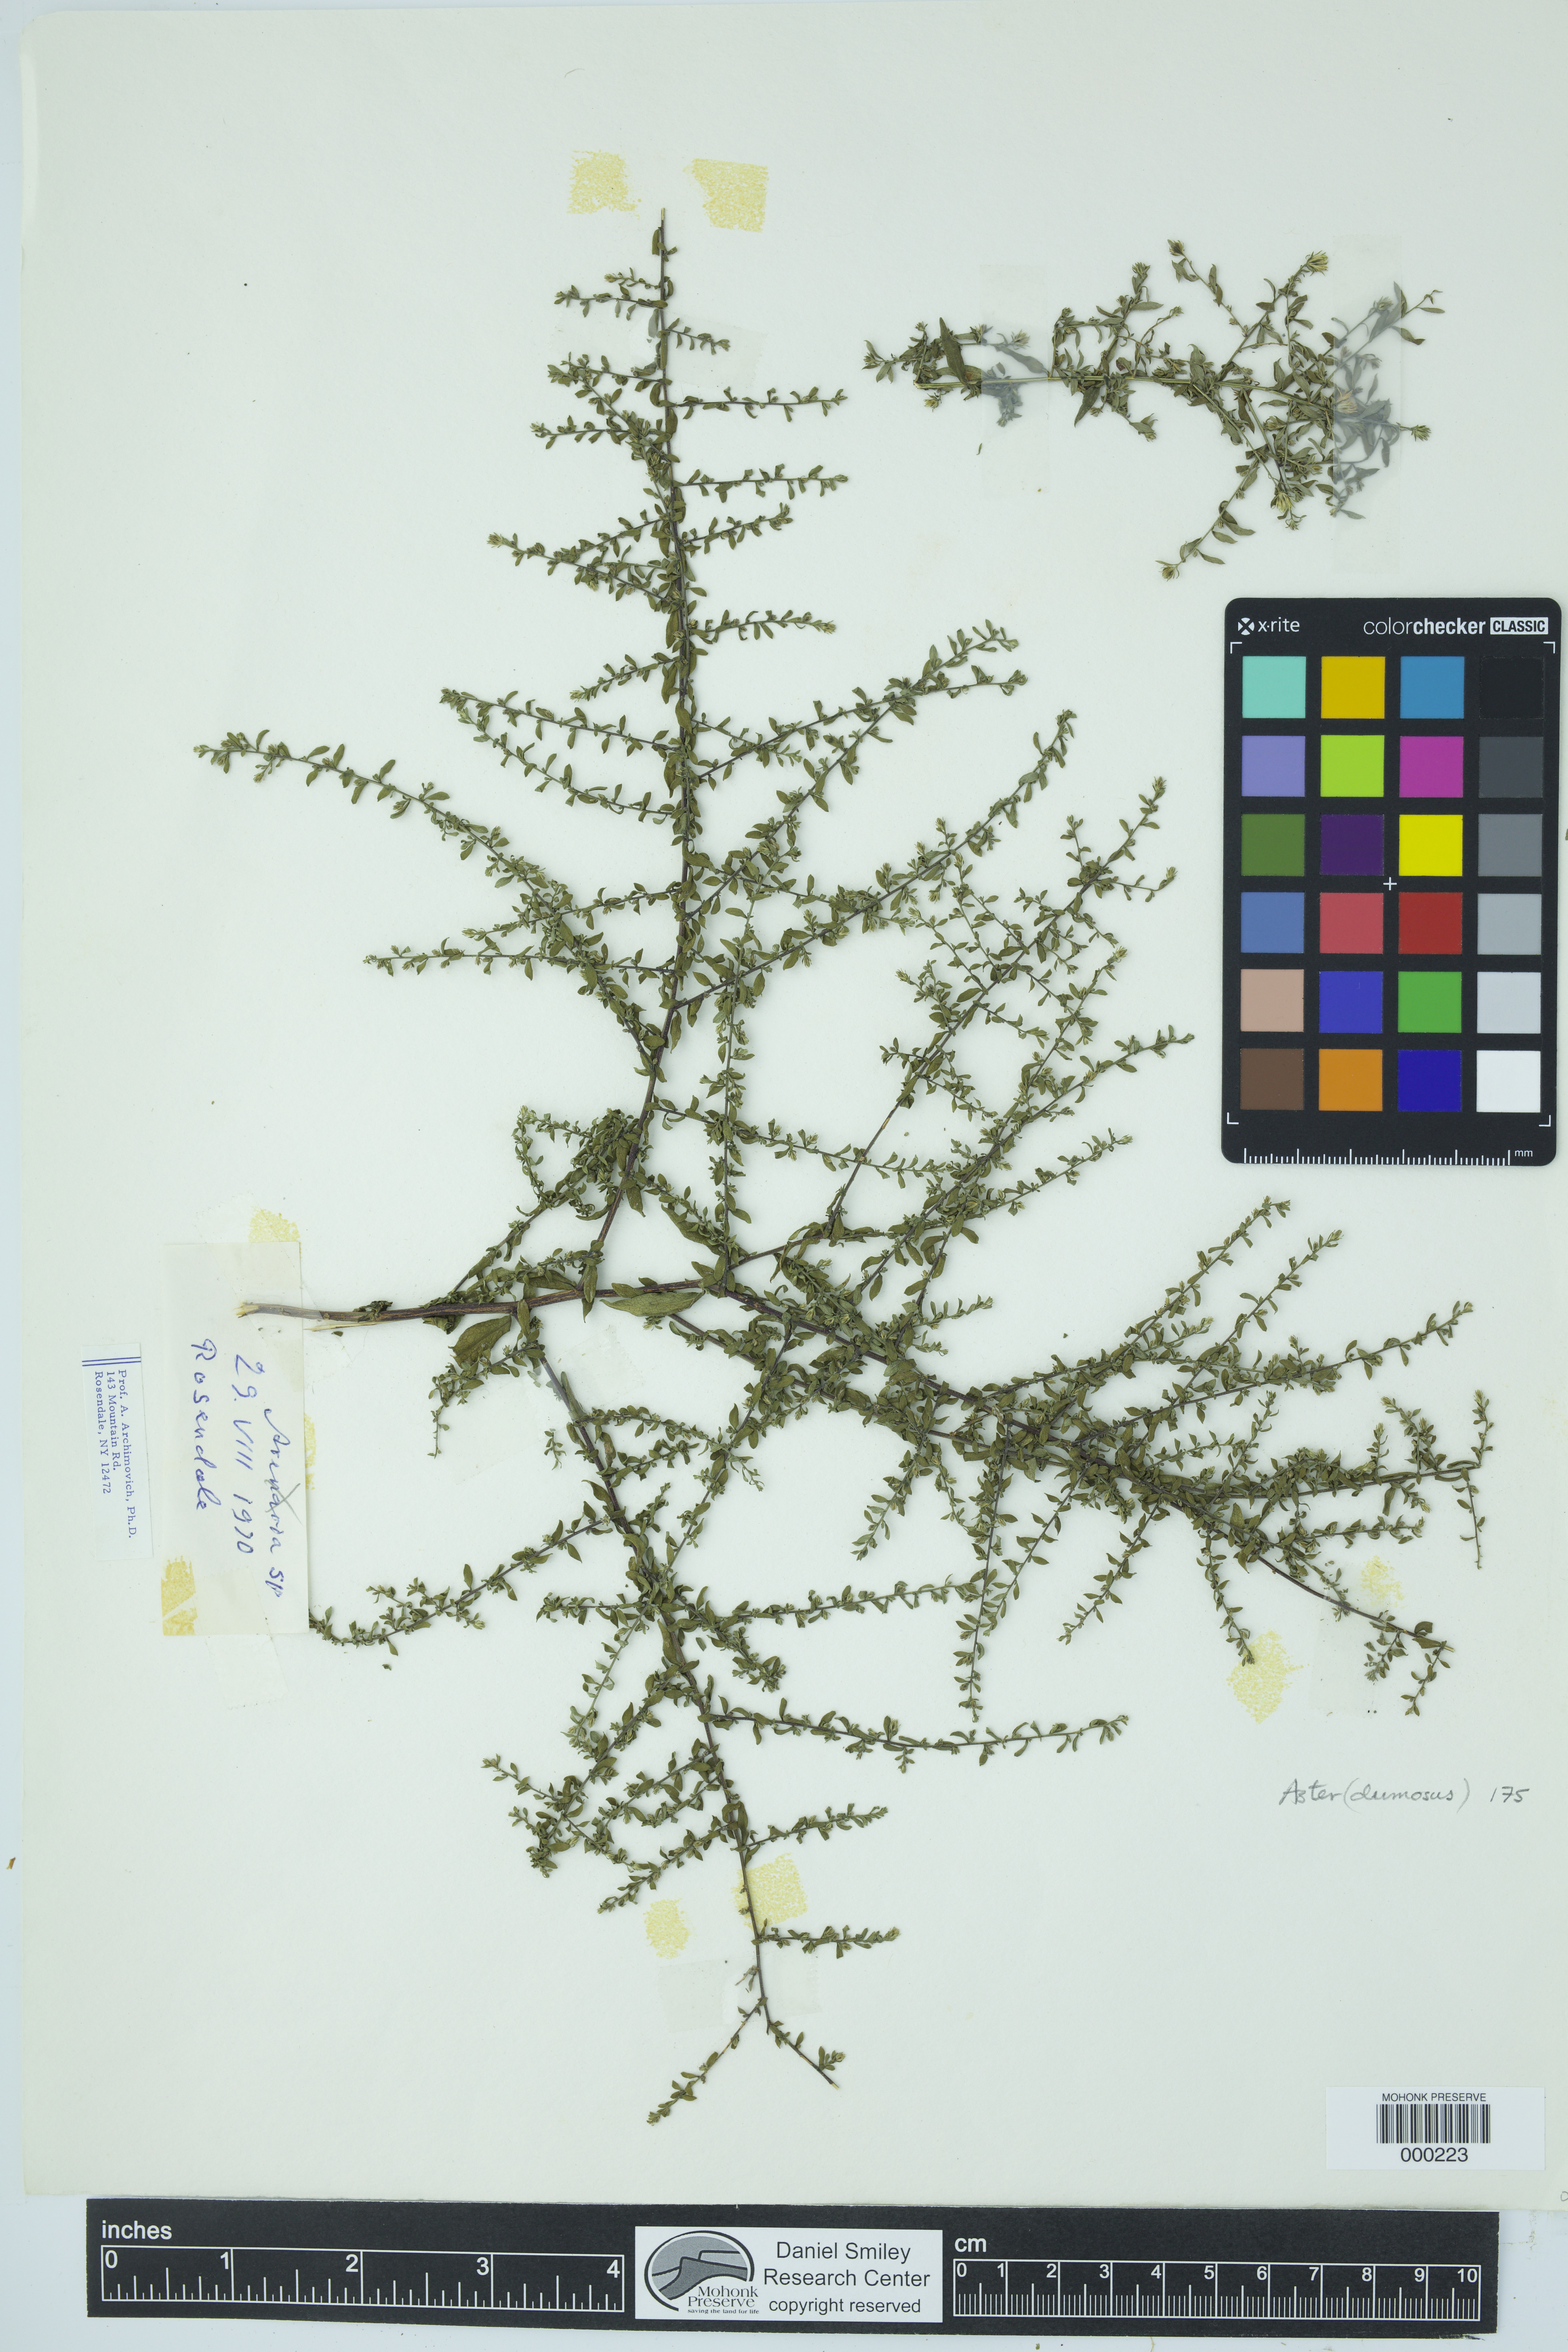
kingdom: Plantae
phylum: Tracheophyta
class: Magnoliopsida
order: Asterales
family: Asteraceae
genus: Symphyotrichum
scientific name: Symphyotrichum dumosum
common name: Bushy aster
